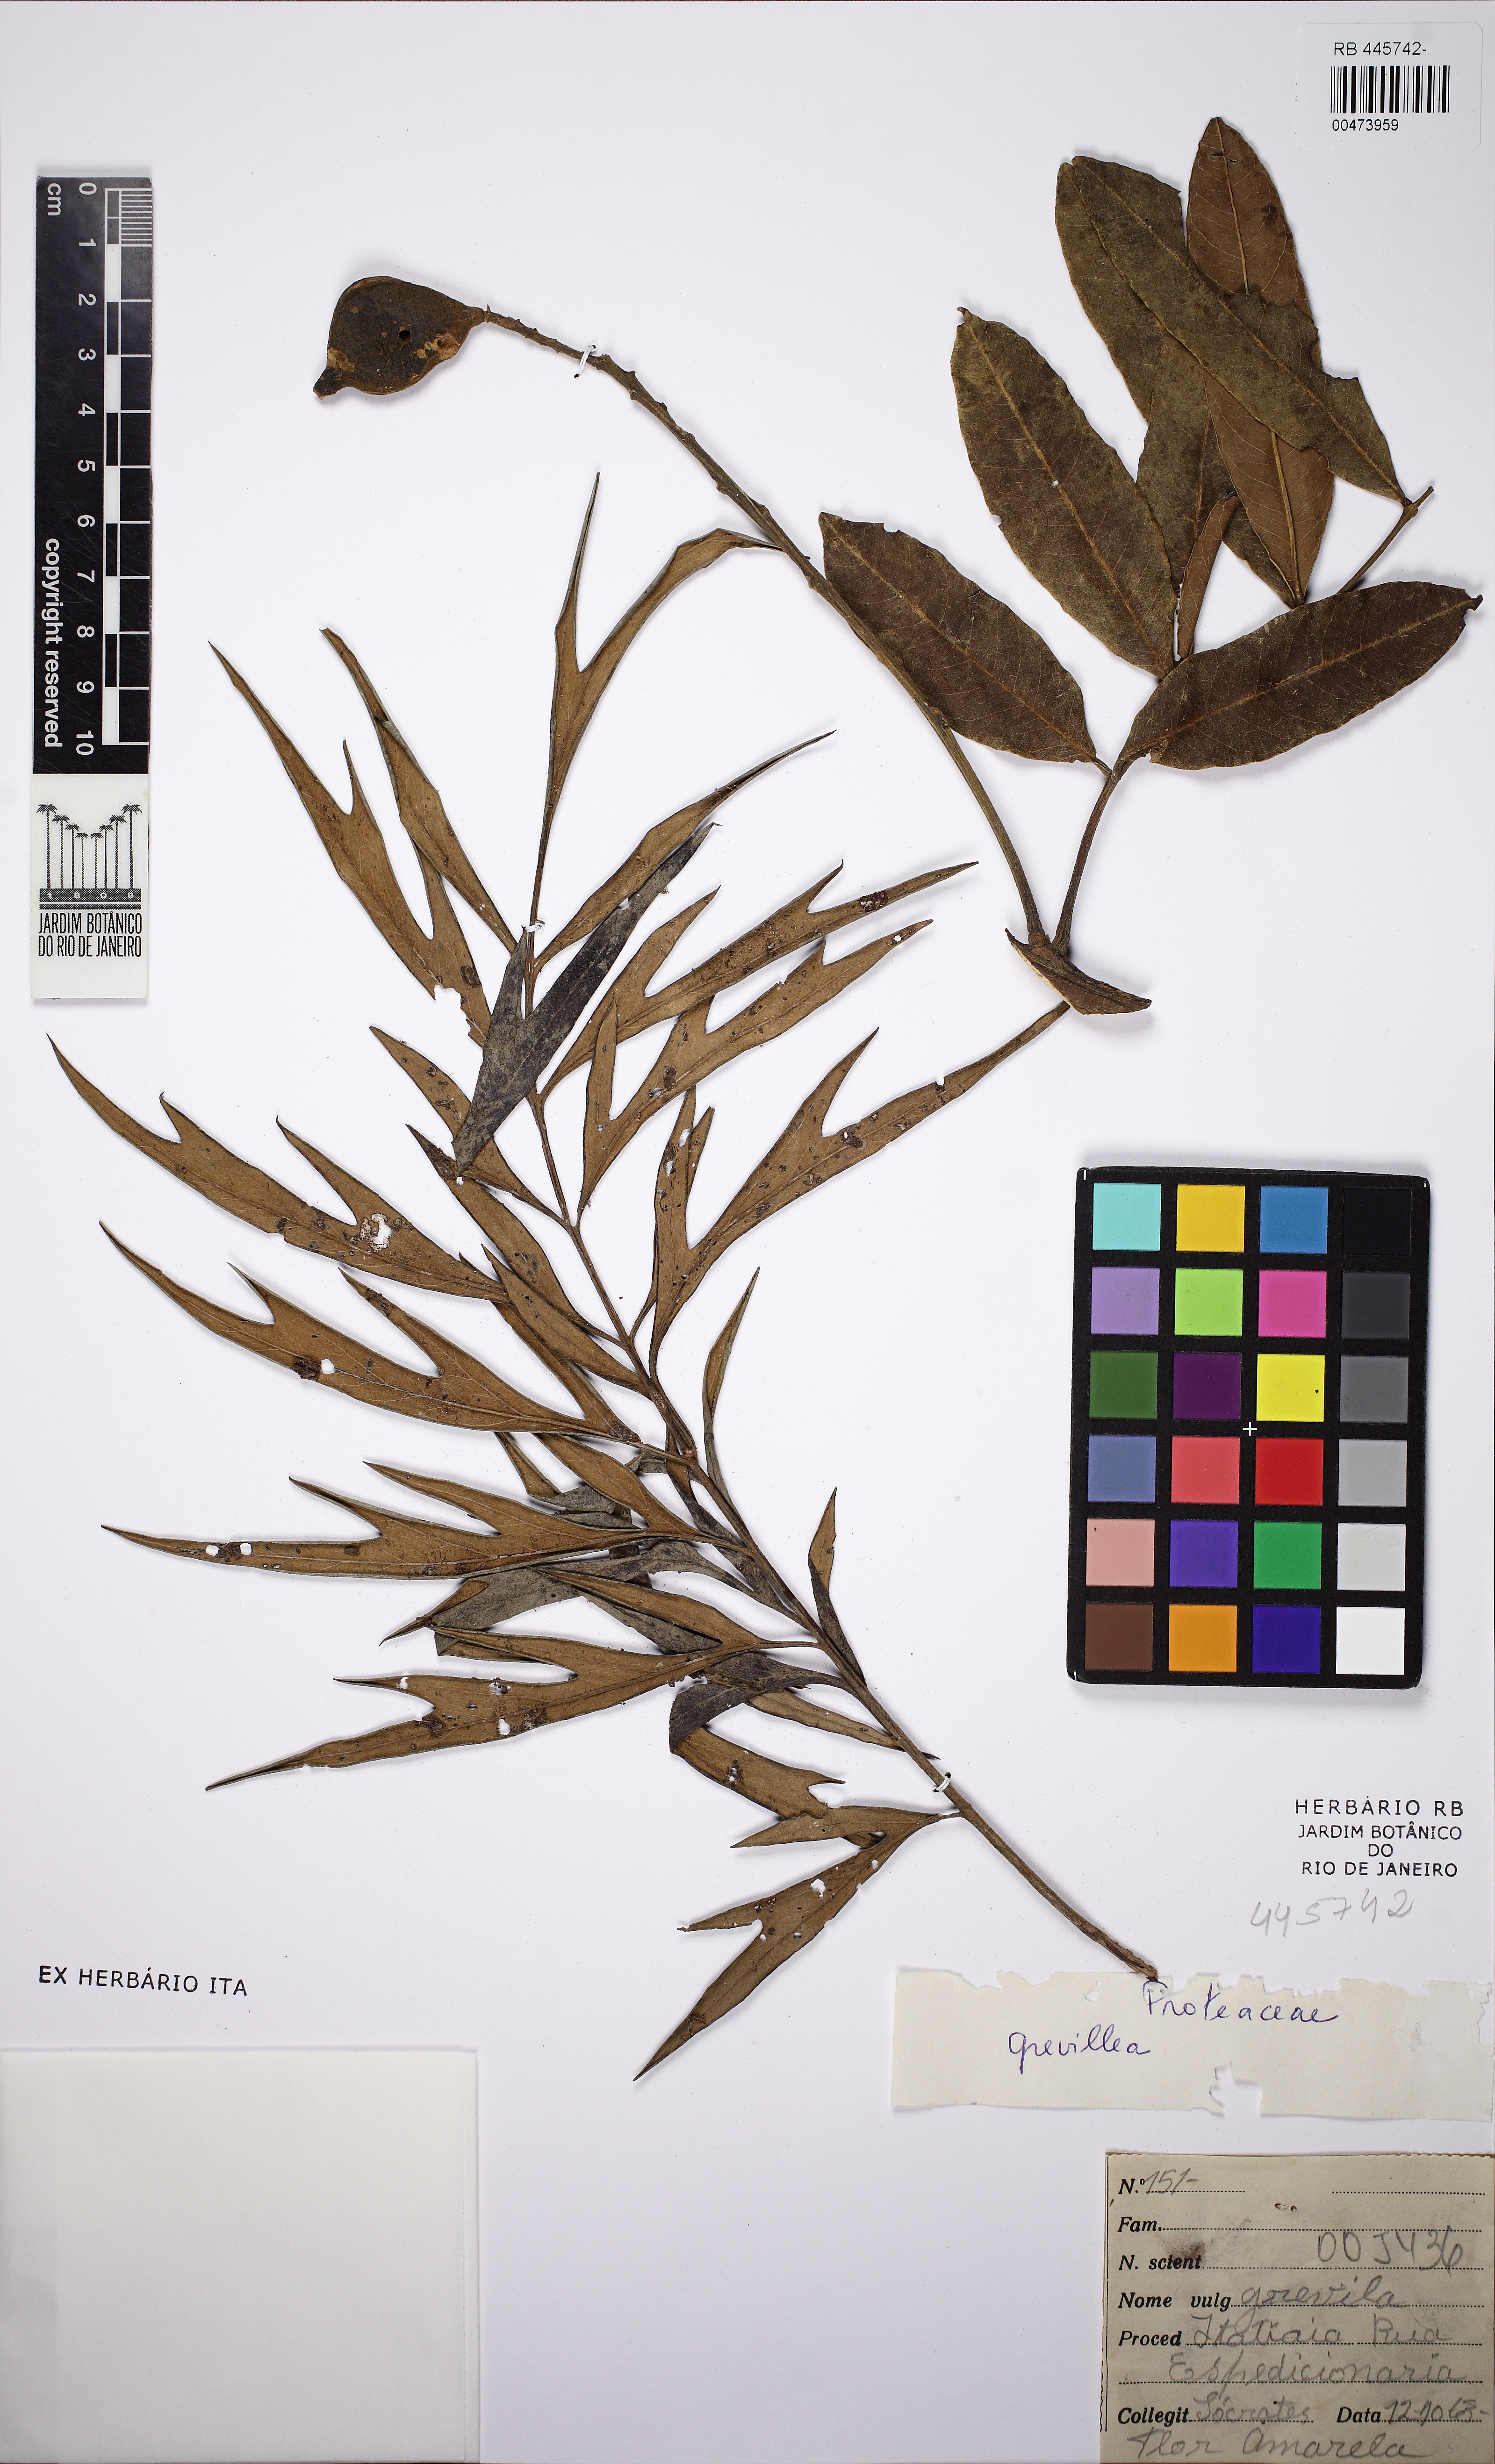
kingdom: Plantae
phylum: Tracheophyta
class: Magnoliopsida
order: Proteales
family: Proteaceae
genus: Grevillea
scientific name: Grevillea
